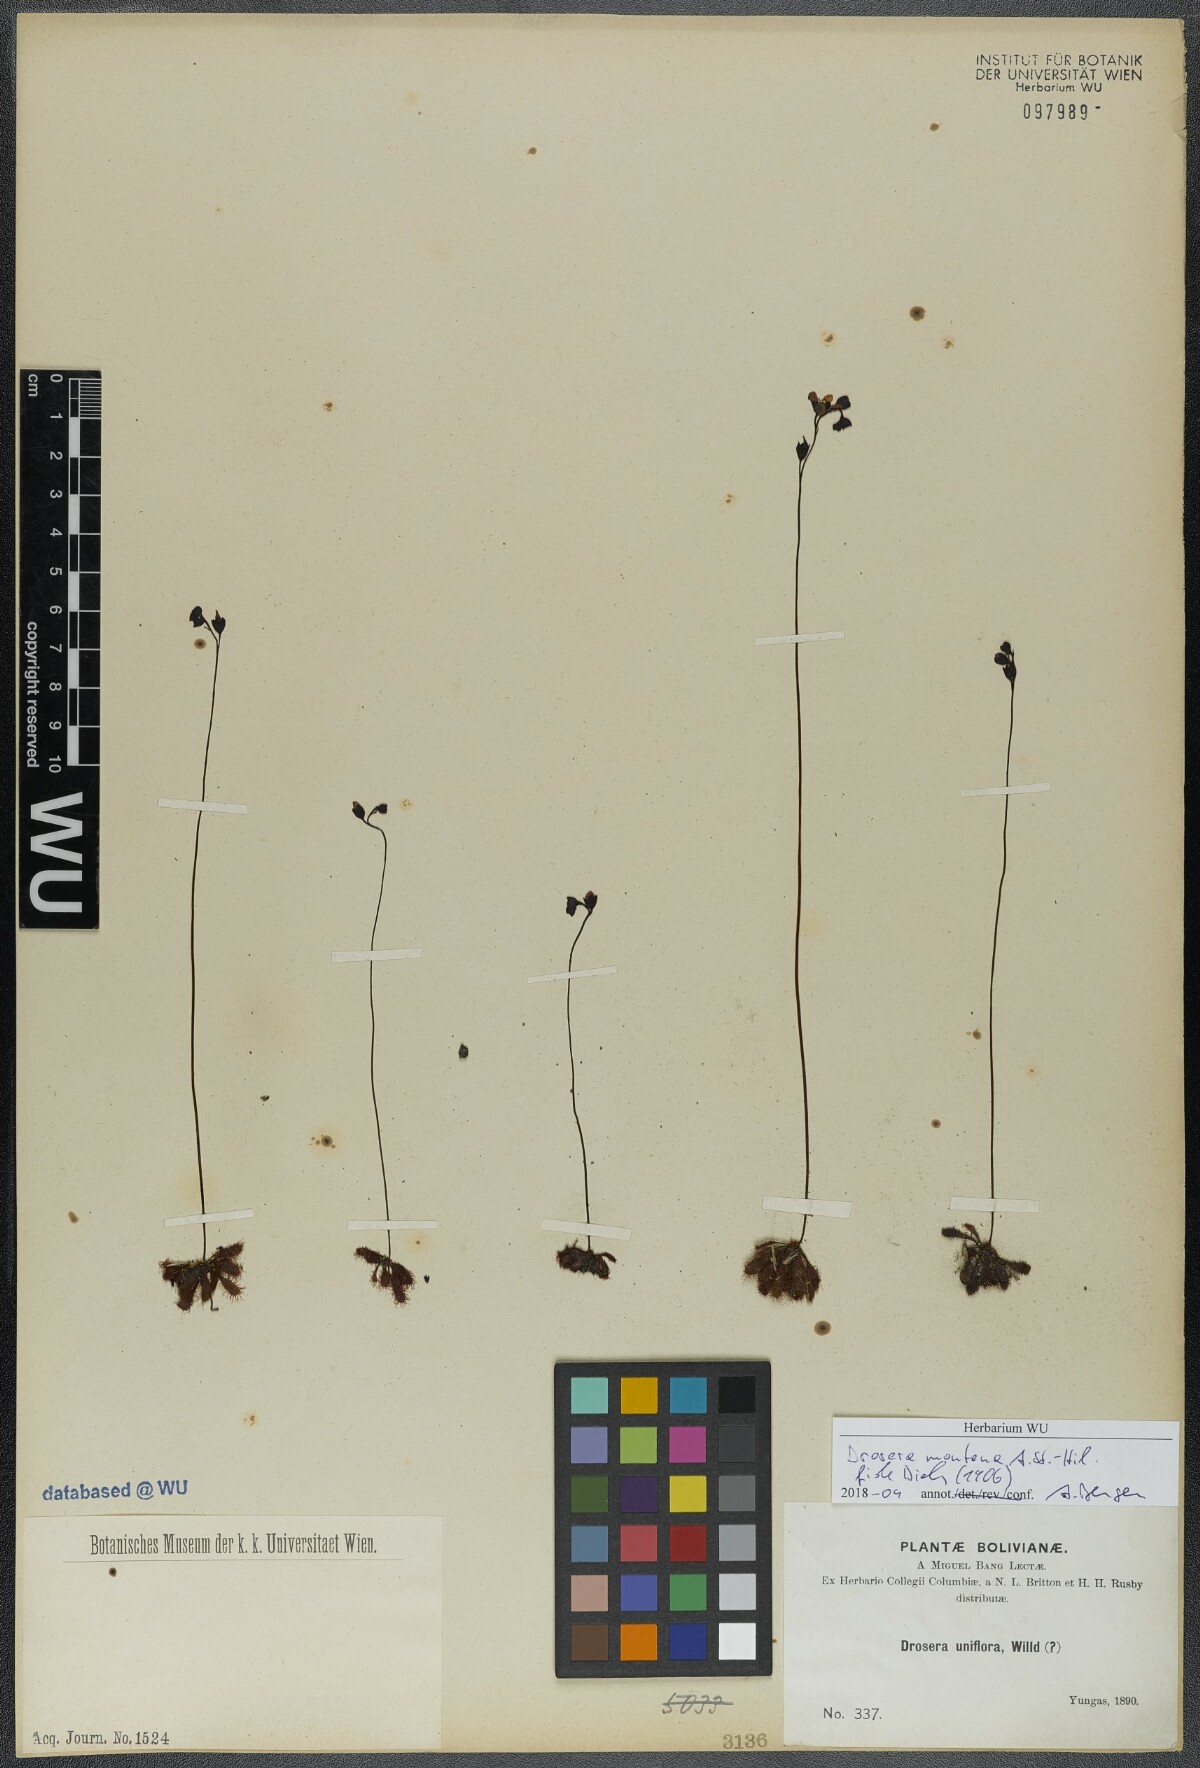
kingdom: Plantae
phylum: Tracheophyta
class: Magnoliopsida
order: Caryophyllales
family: Droseraceae
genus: Drosera
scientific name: Drosera montana
